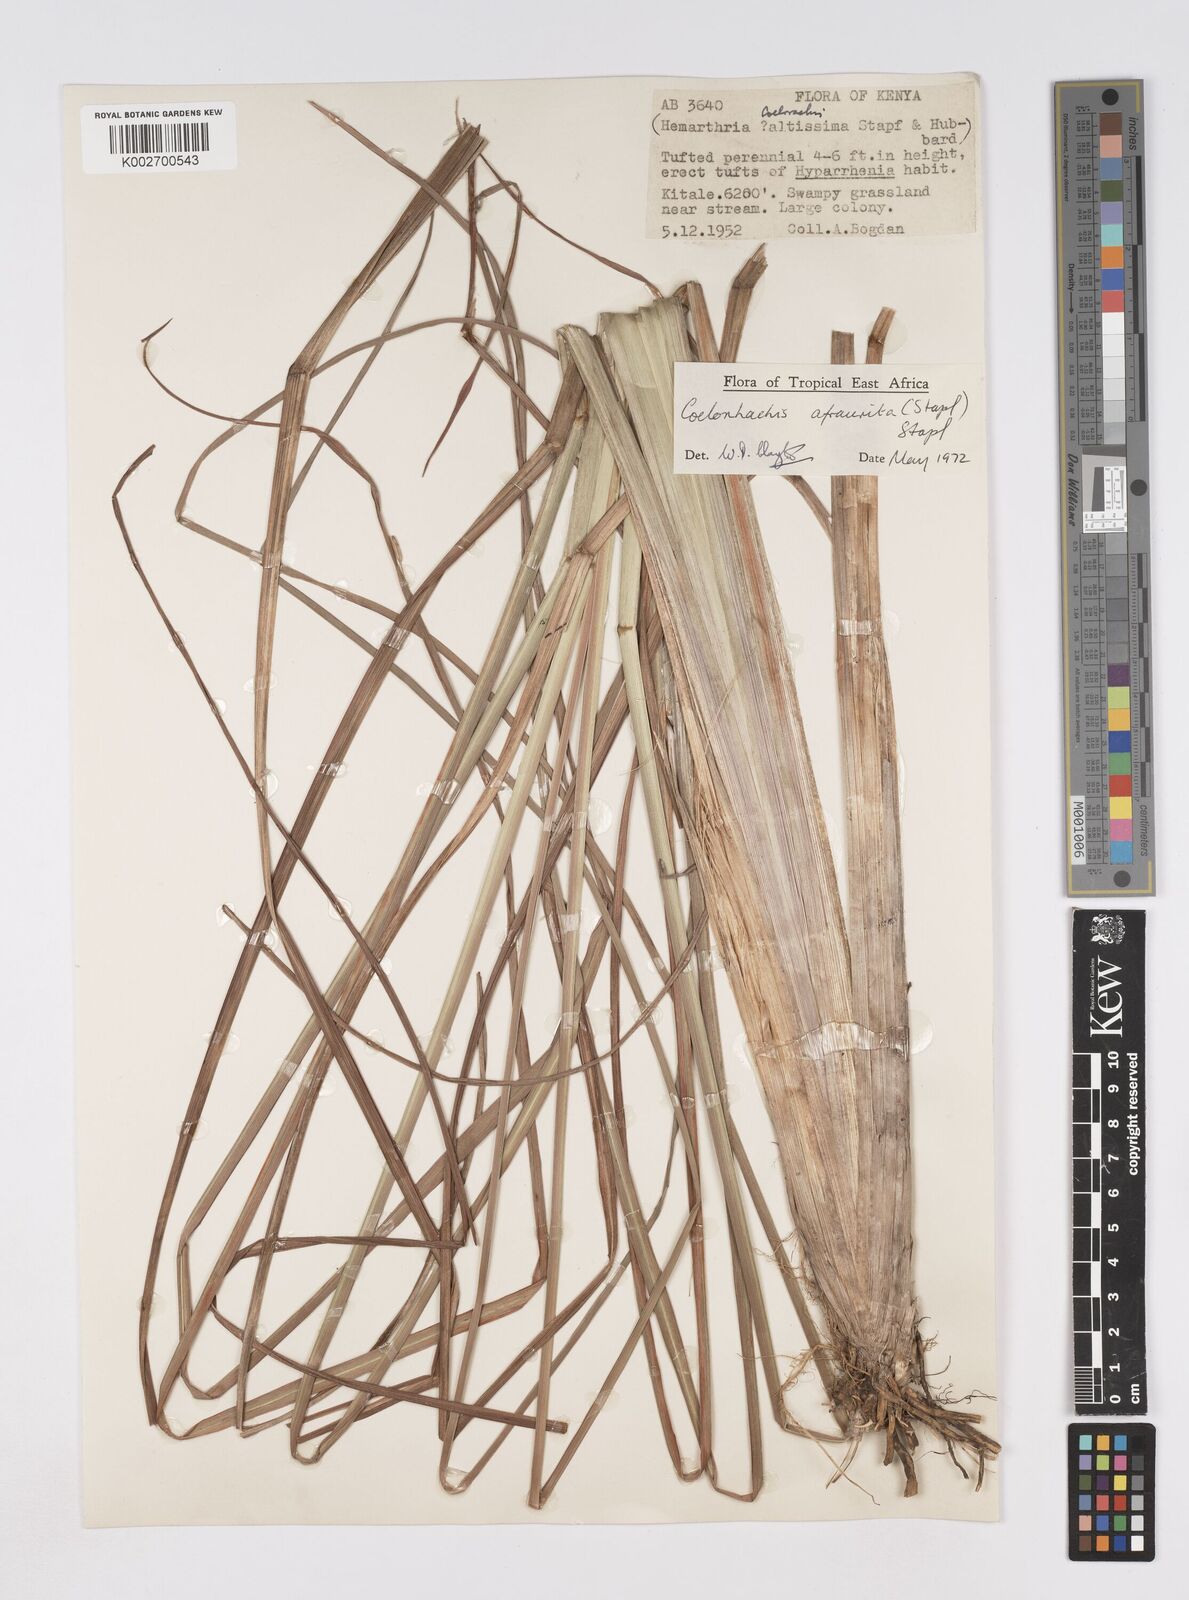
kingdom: Plantae
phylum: Tracheophyta
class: Liliopsida
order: Poales
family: Poaceae
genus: Rottboellia
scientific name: Rottboellia afraurita
